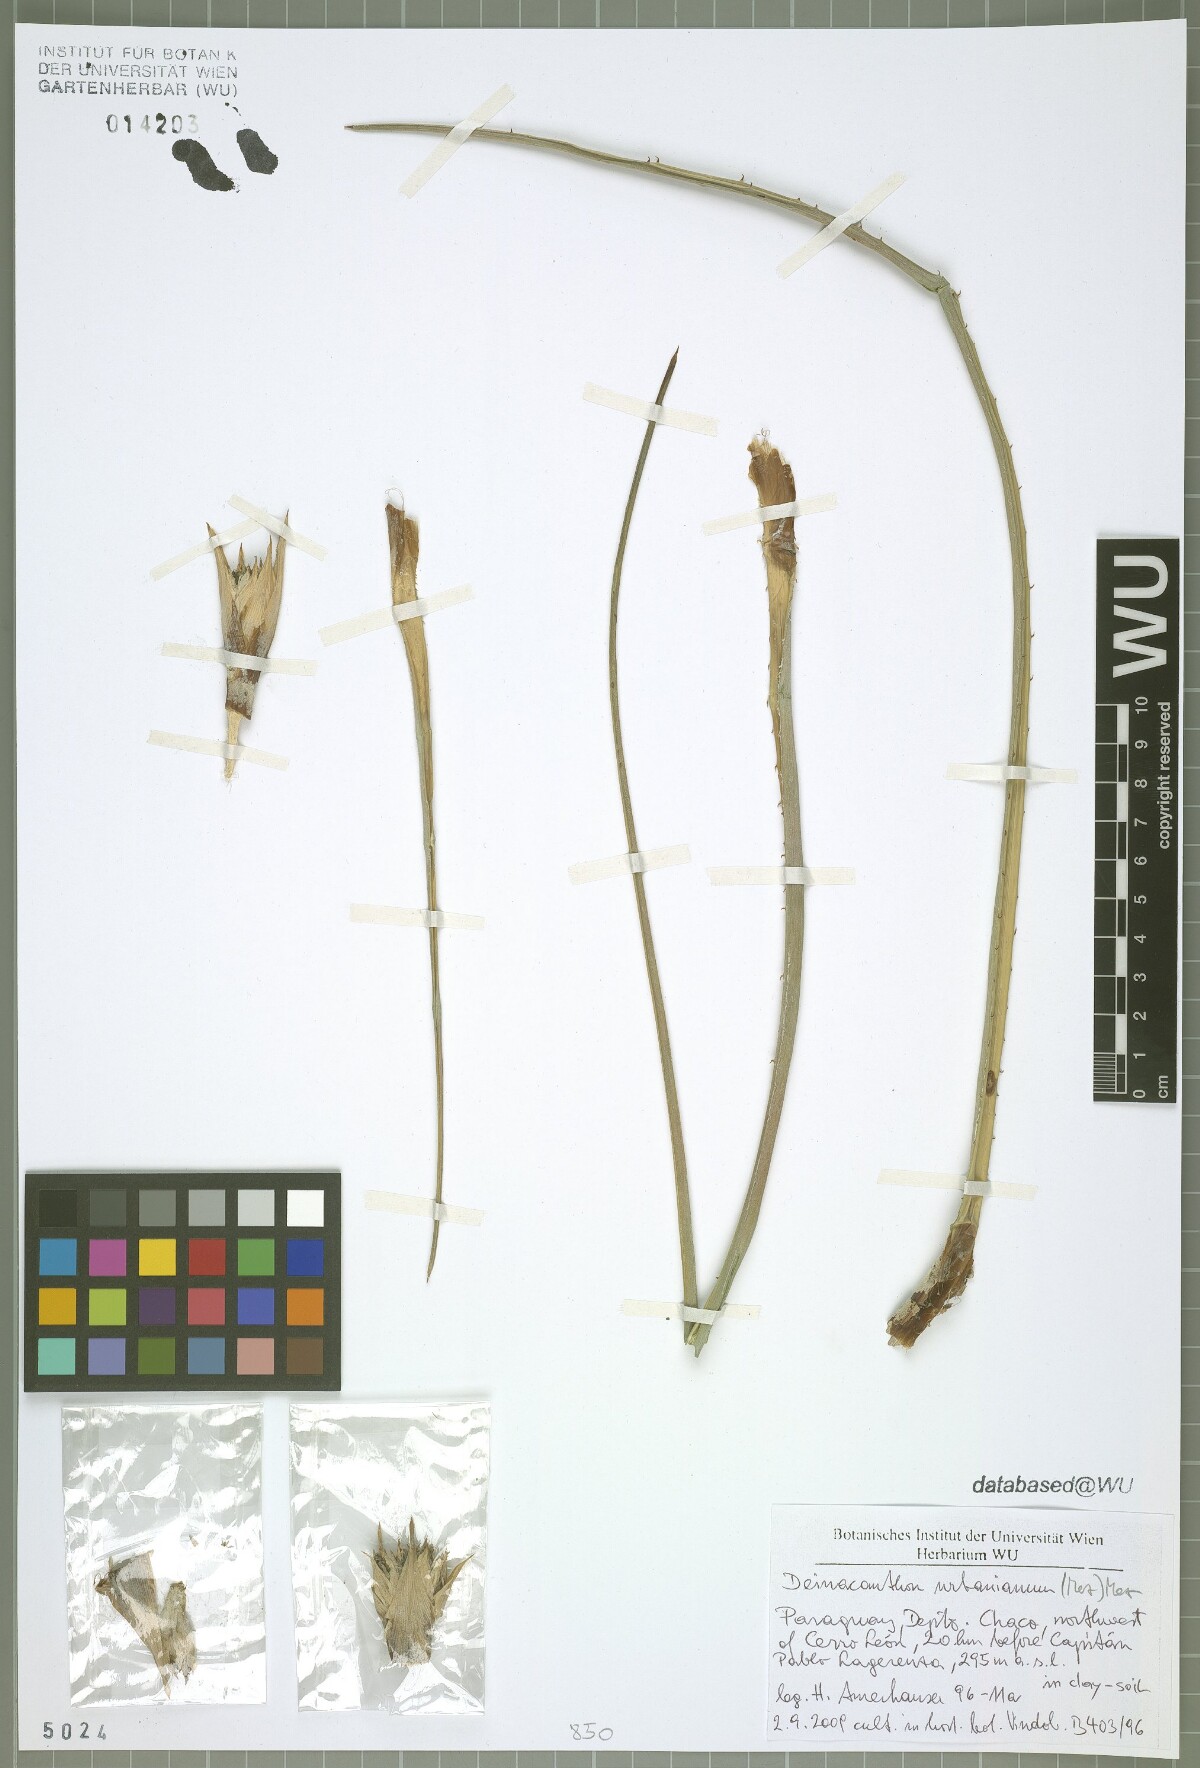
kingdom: Plantae
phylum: Tracheophyta
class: Liliopsida
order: Poales
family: Bromeliaceae
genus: Deinacanthon
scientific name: Deinacanthon urbanianum
